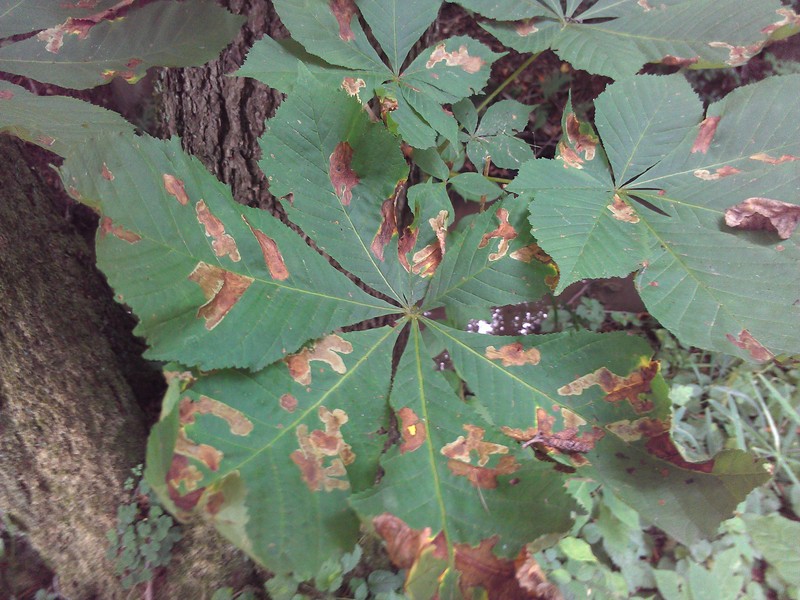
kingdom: Animalia
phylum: Arthropoda
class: Insecta
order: Lepidoptera
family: Gracillariidae
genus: Cameraria
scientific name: Cameraria ohridella
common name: Horse-chestnut leaf-miner
